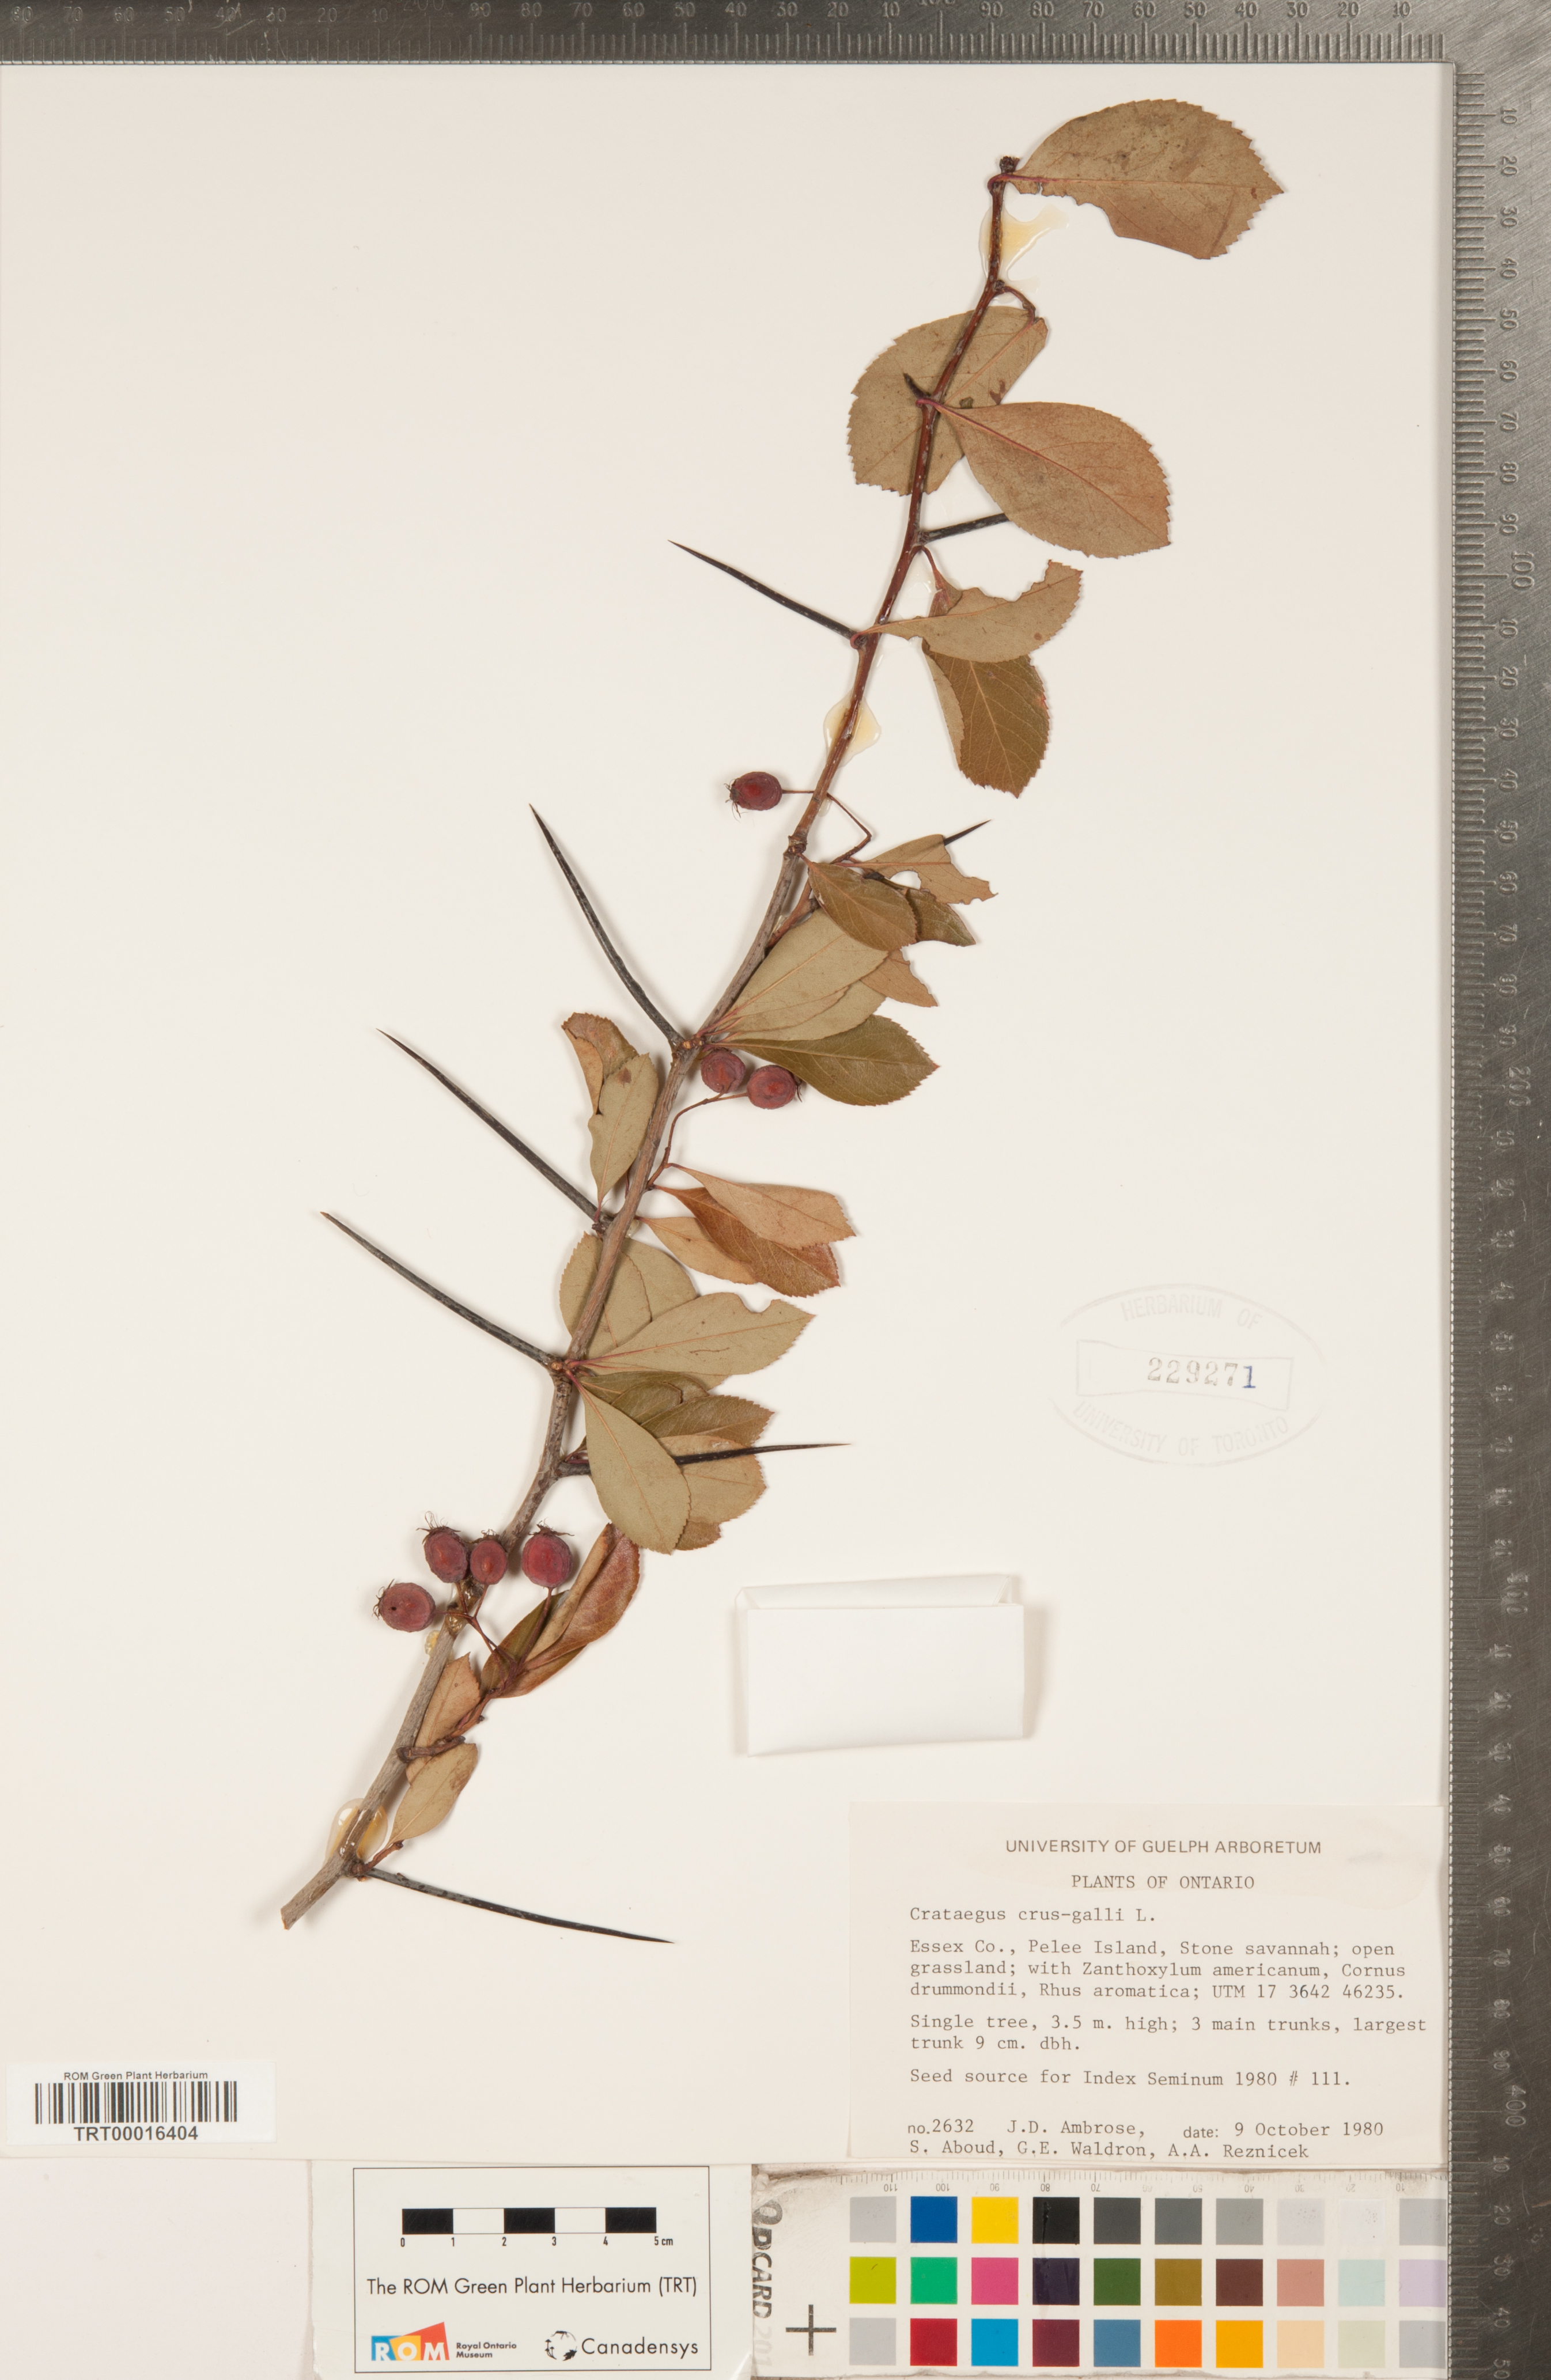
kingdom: Plantae
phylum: Tracheophyta
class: Magnoliopsida
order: Rosales
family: Rosaceae
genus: Crataegus
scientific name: Crataegus crus-galli
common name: Cockspurthorn
